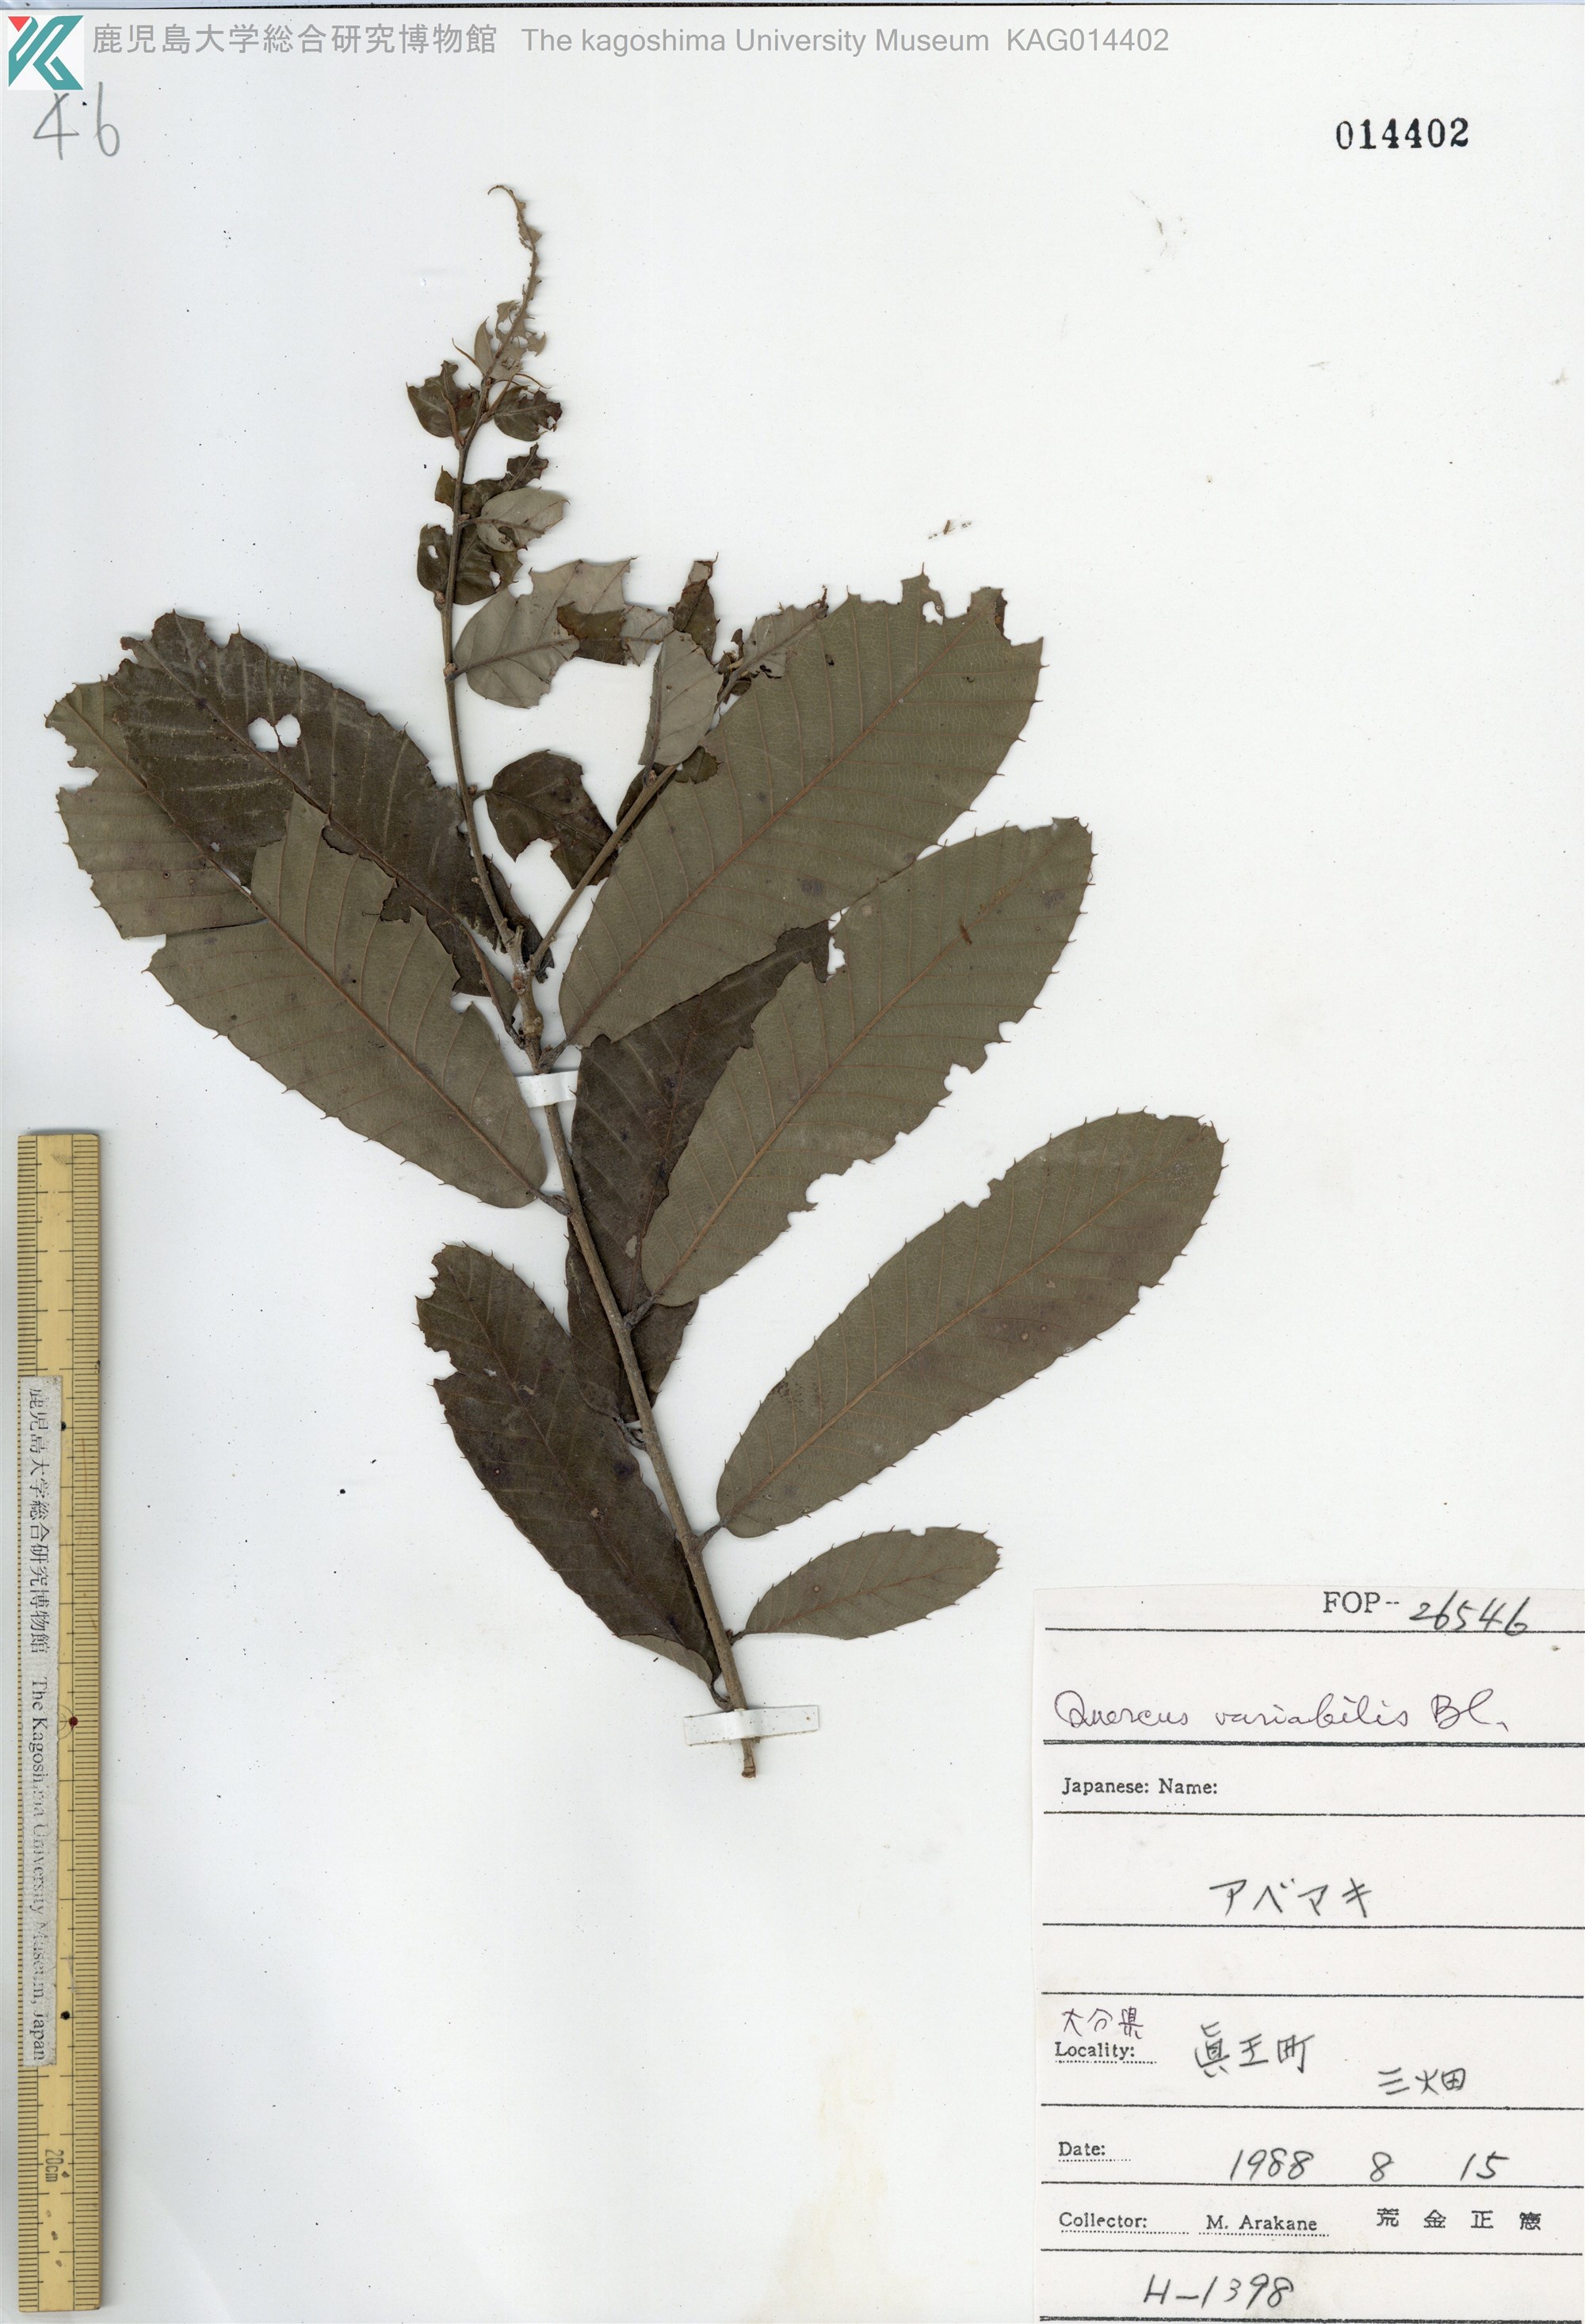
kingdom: Plantae
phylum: Tracheophyta
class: Magnoliopsida
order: Fagales
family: Fagaceae
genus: Quercus
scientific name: Quercus variabilis
